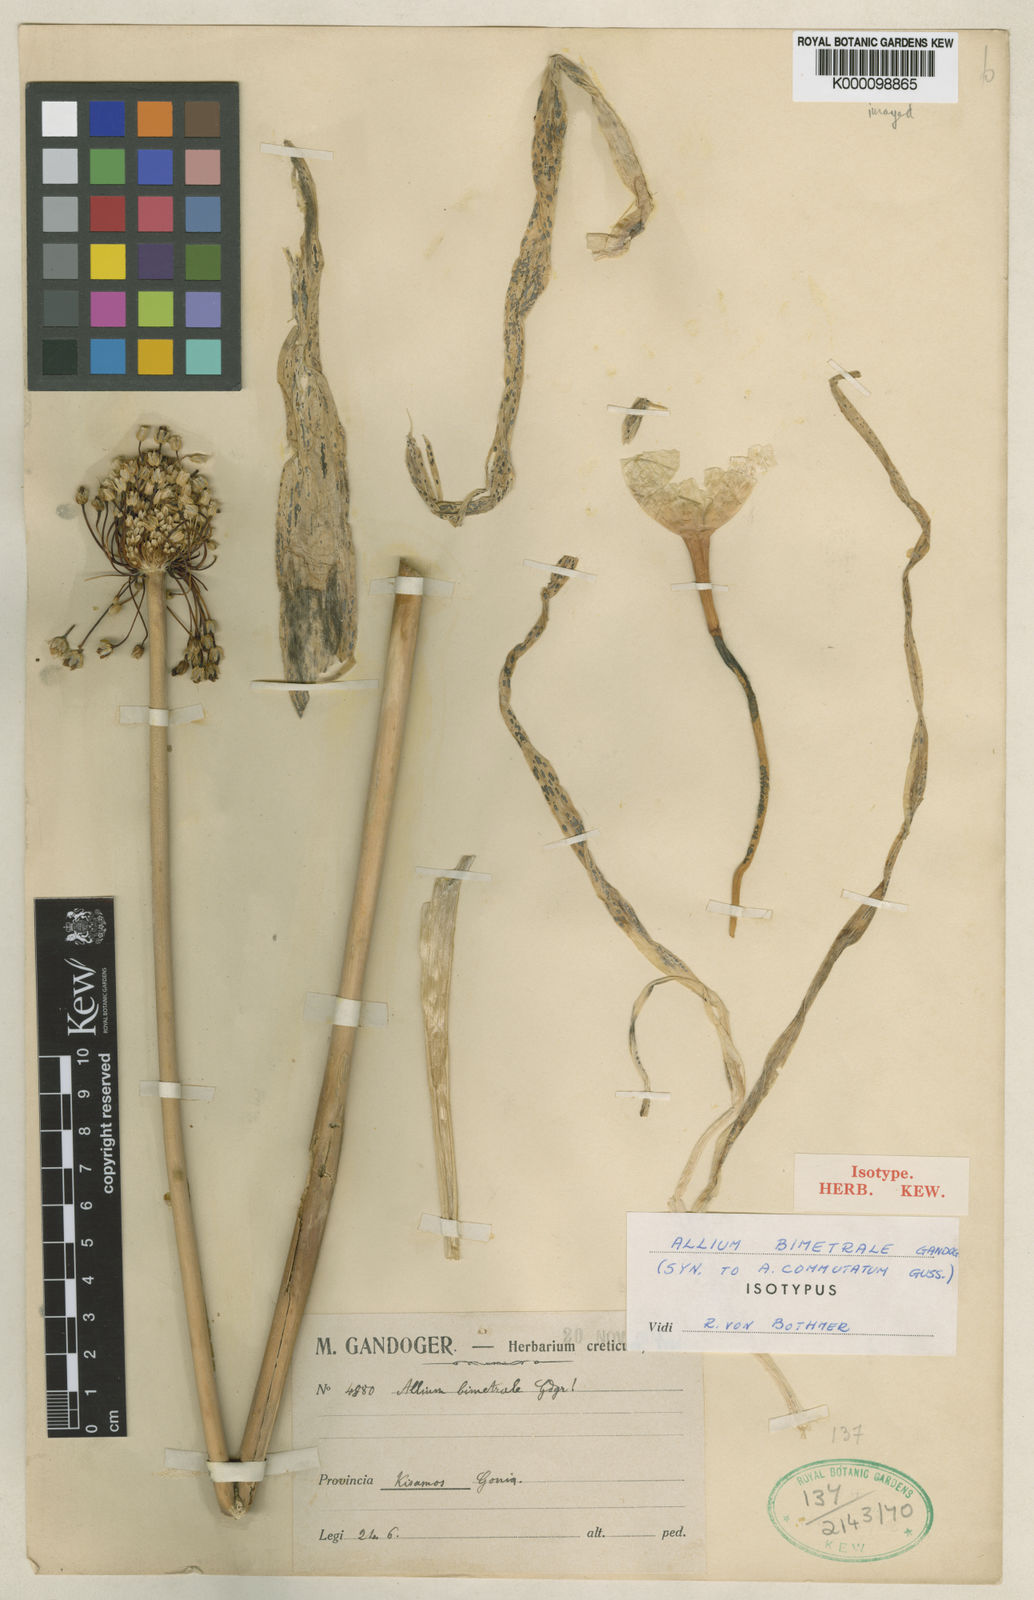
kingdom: Plantae
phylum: Tracheophyta
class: Liliopsida
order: Asparagales
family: Amaryllidaceae
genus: Allium
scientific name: Allium commutatum
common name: Sea garlic
